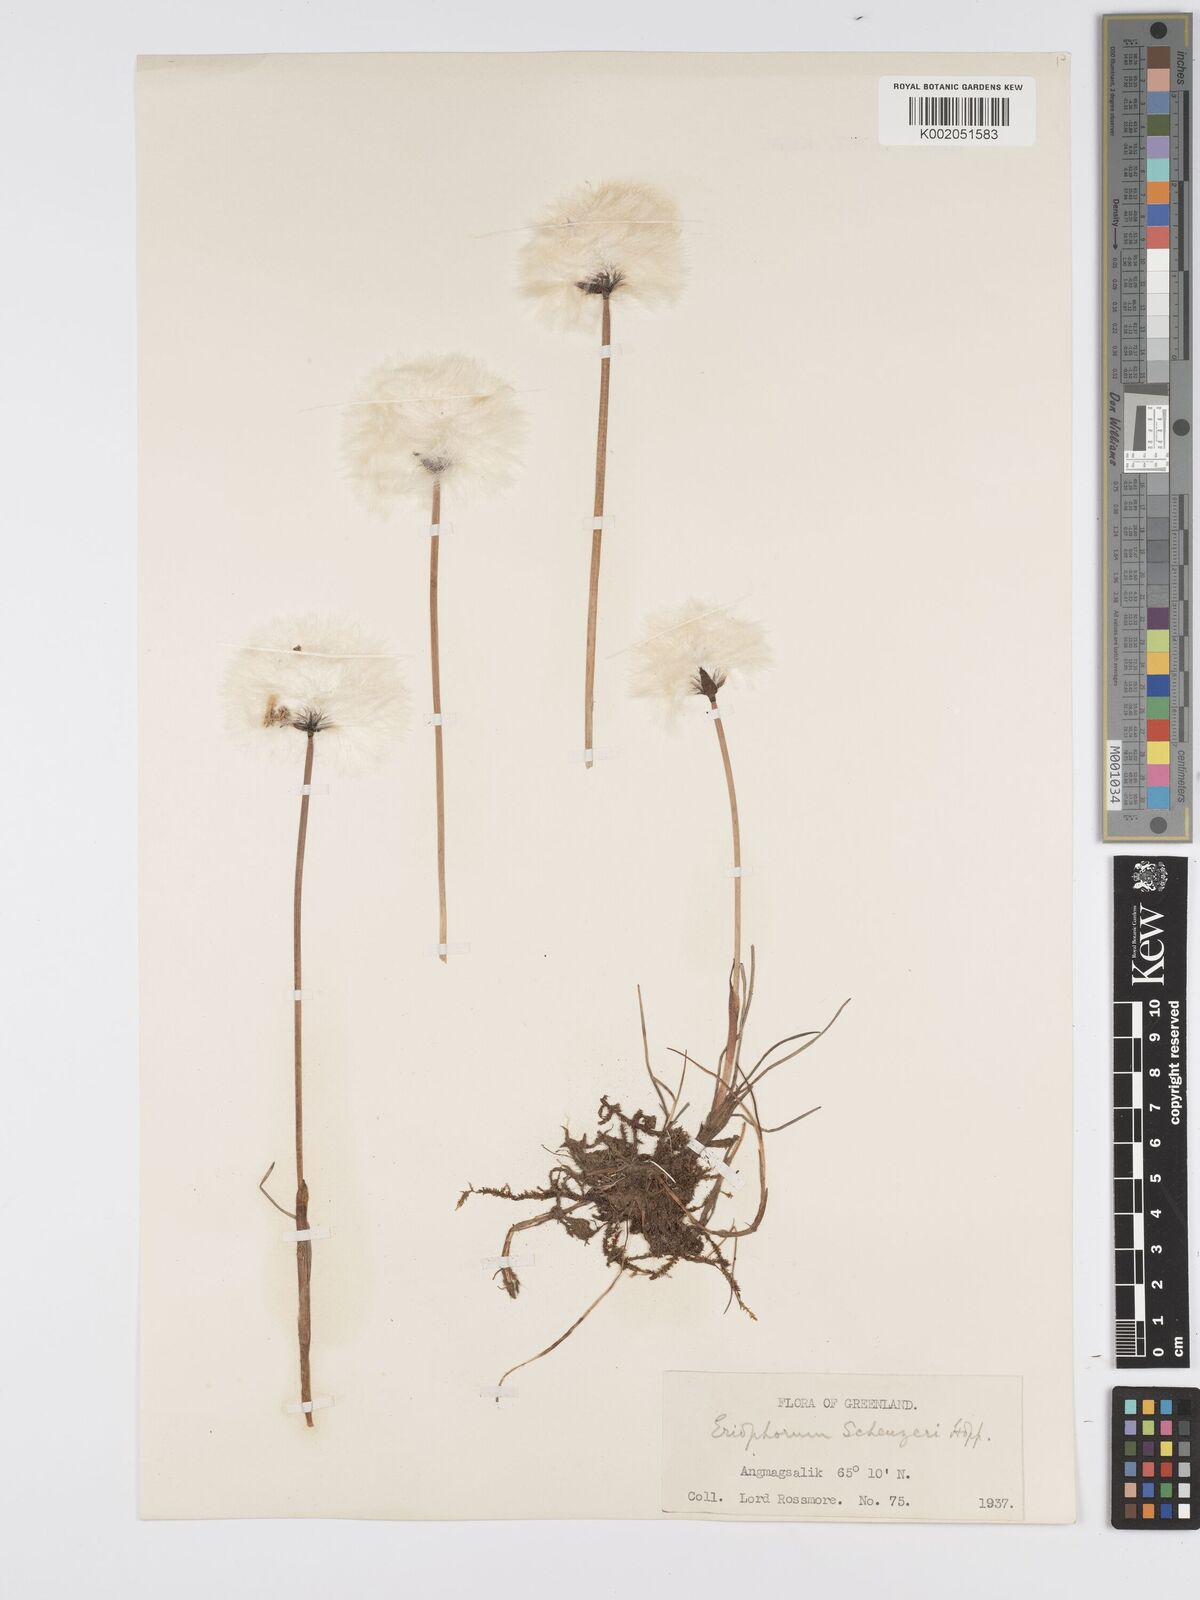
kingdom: Plantae
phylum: Tracheophyta
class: Liliopsida
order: Poales
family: Cyperaceae
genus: Eriophorum
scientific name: Eriophorum scheuchzeri
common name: Scheuchzer's cottongrass
